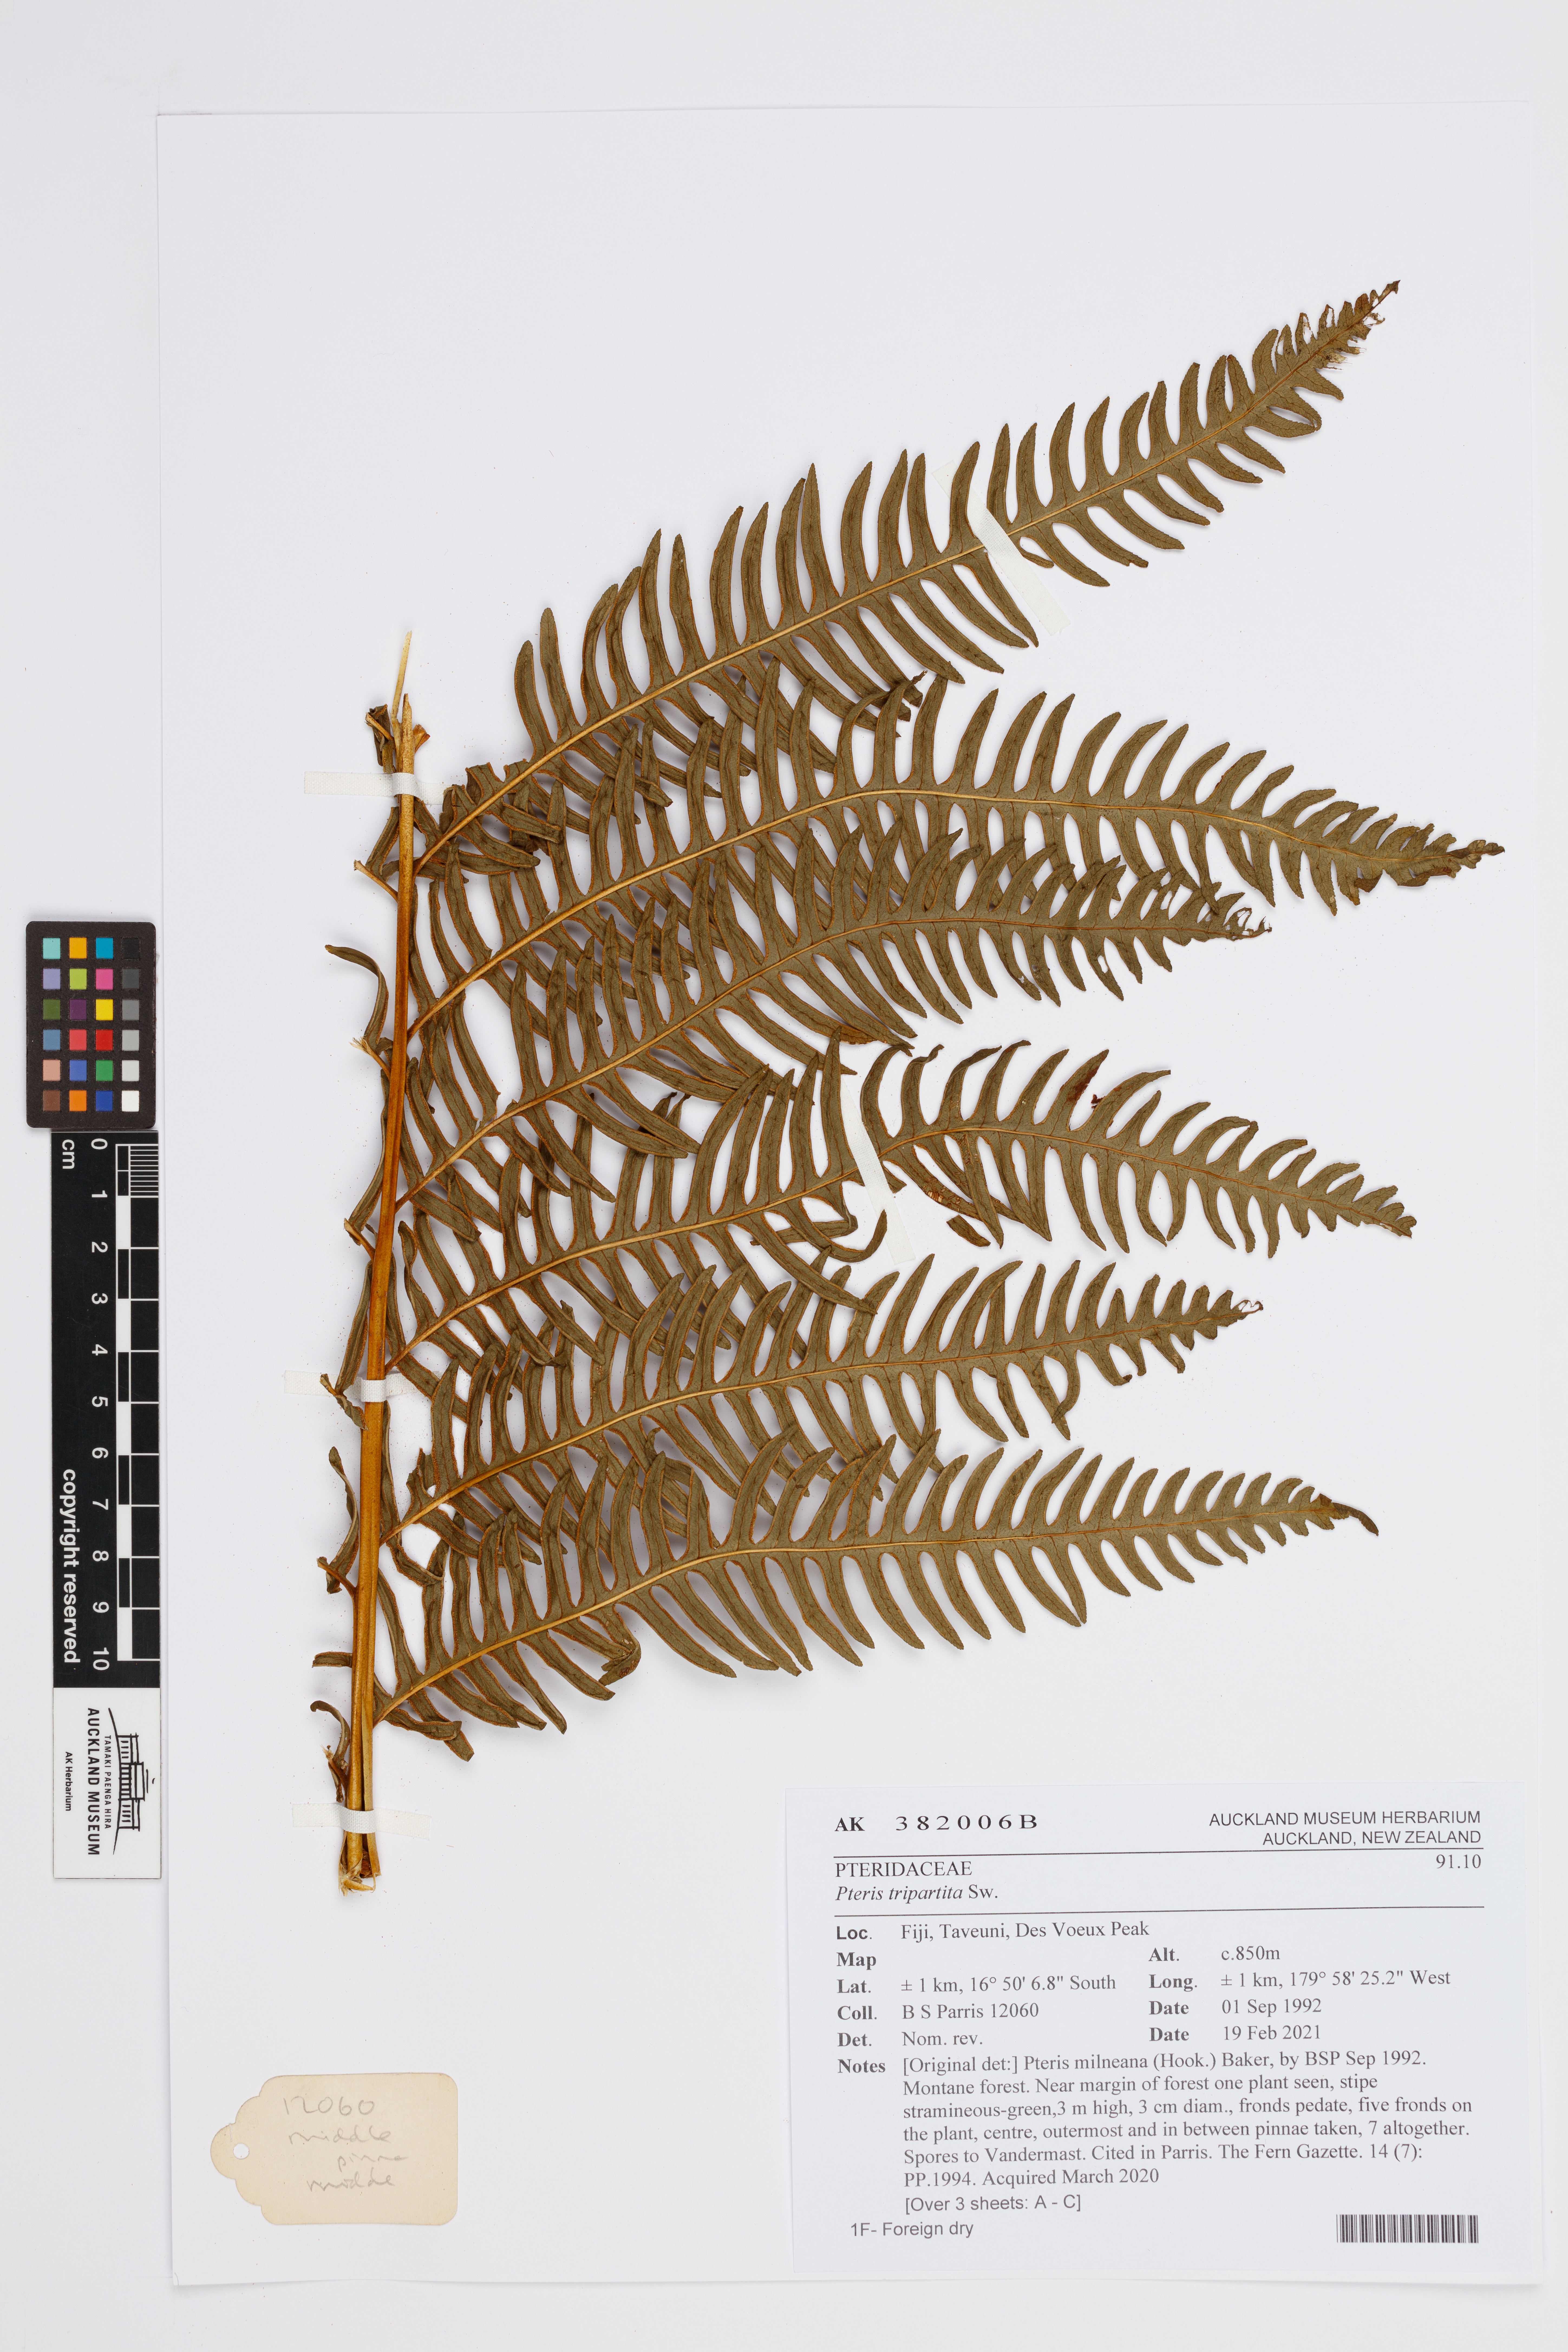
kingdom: Plantae
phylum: Tracheophyta
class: Polypodiopsida
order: Polypodiales
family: Pteridaceae
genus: Pteris
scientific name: Pteris tripartita
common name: Giant brake
